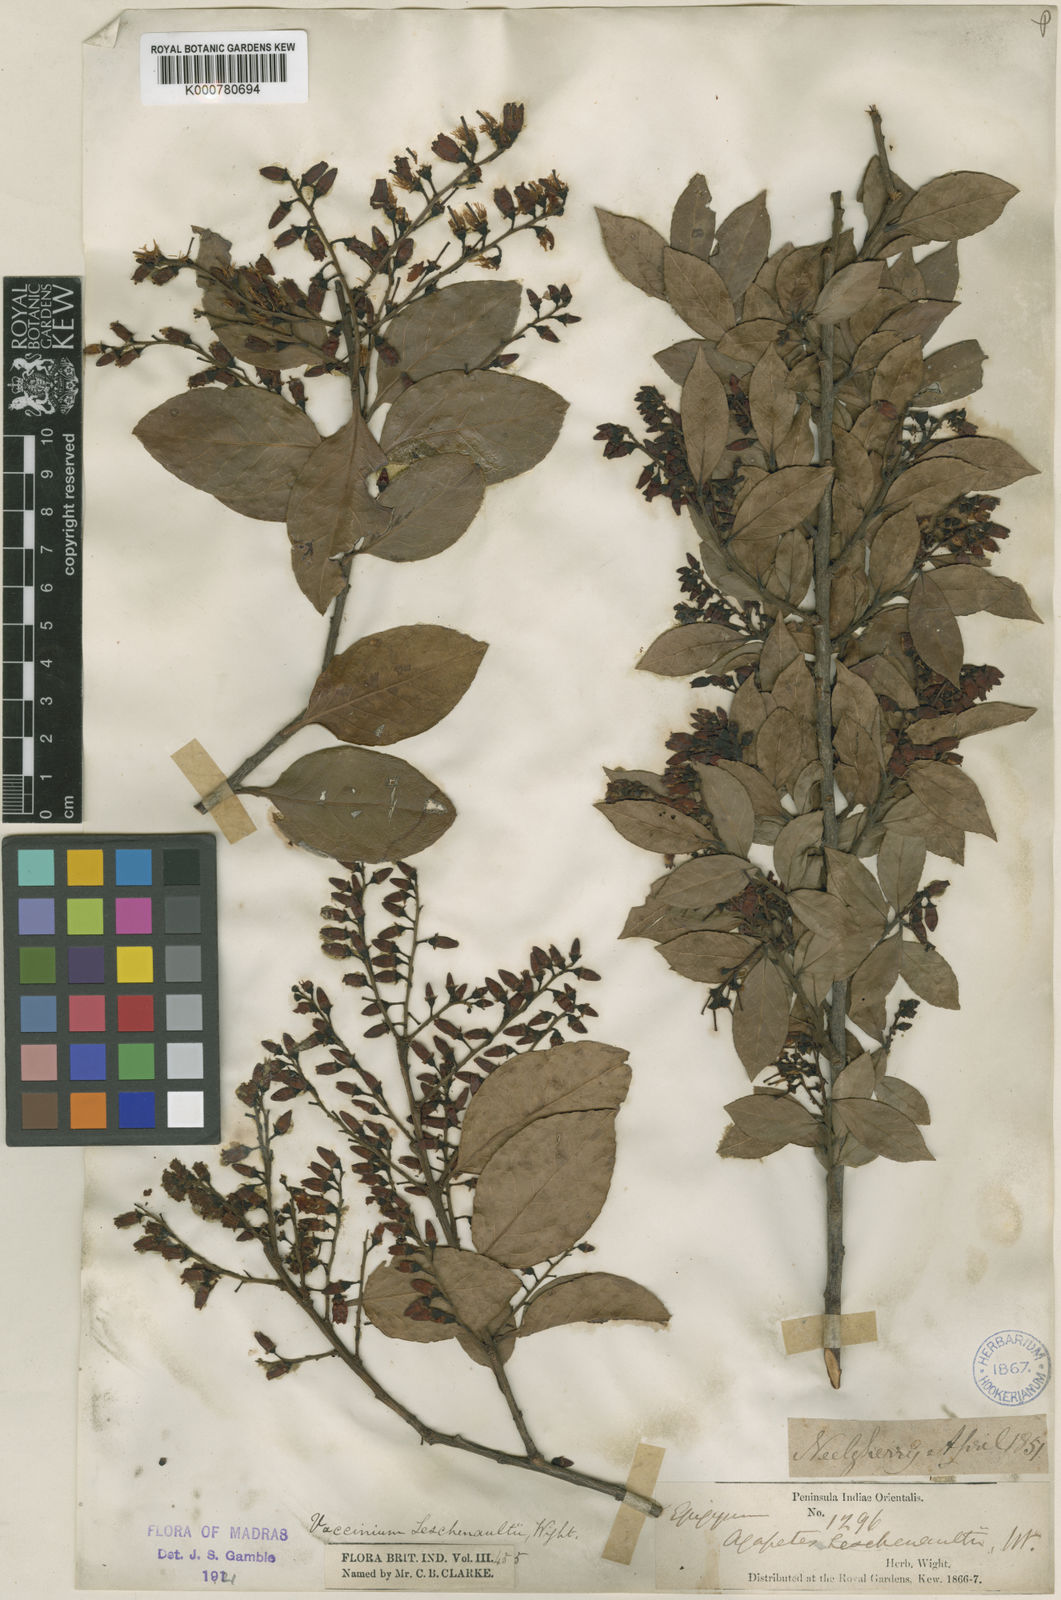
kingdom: Plantae
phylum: Tracheophyta
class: Magnoliopsida
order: Ericales
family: Ericaceae
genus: Vaccinium
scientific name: Vaccinium symplocifolium
